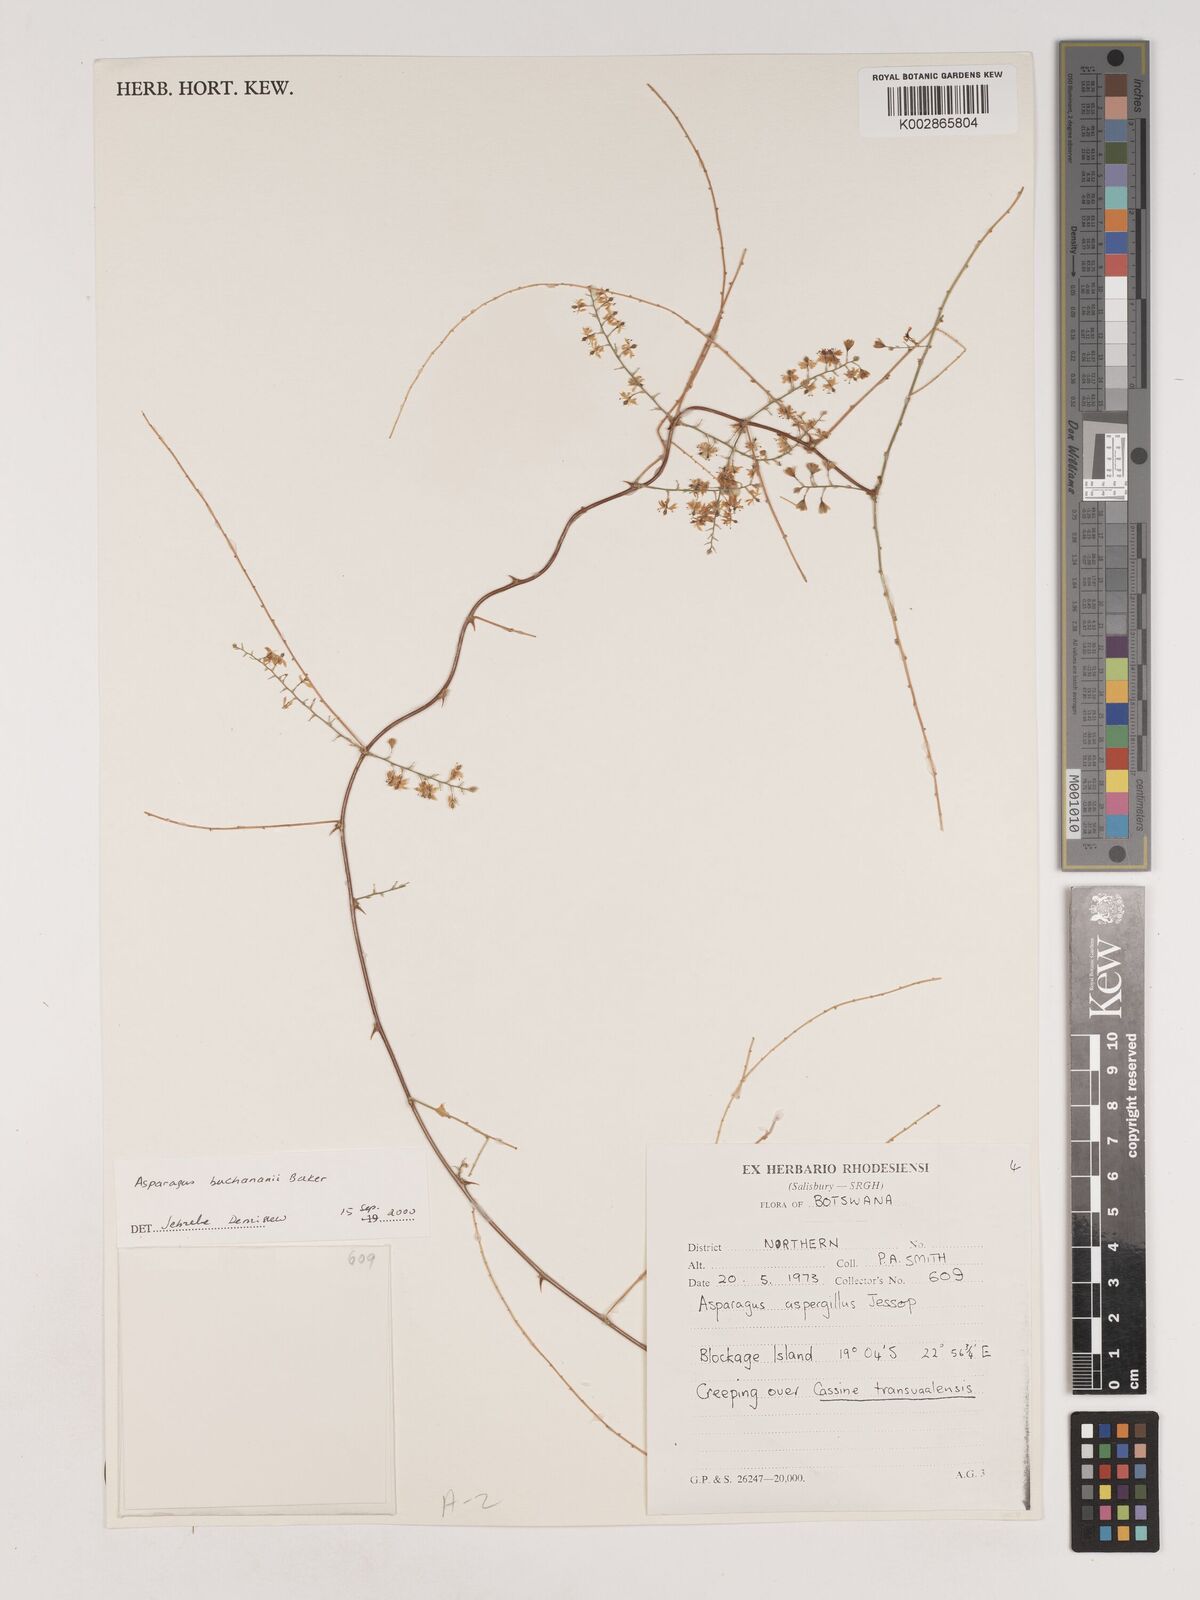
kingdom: Plantae
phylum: Tracheophyta
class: Liliopsida
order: Asparagales
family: Asparagaceae
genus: Asparagus
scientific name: Asparagus buchananii
